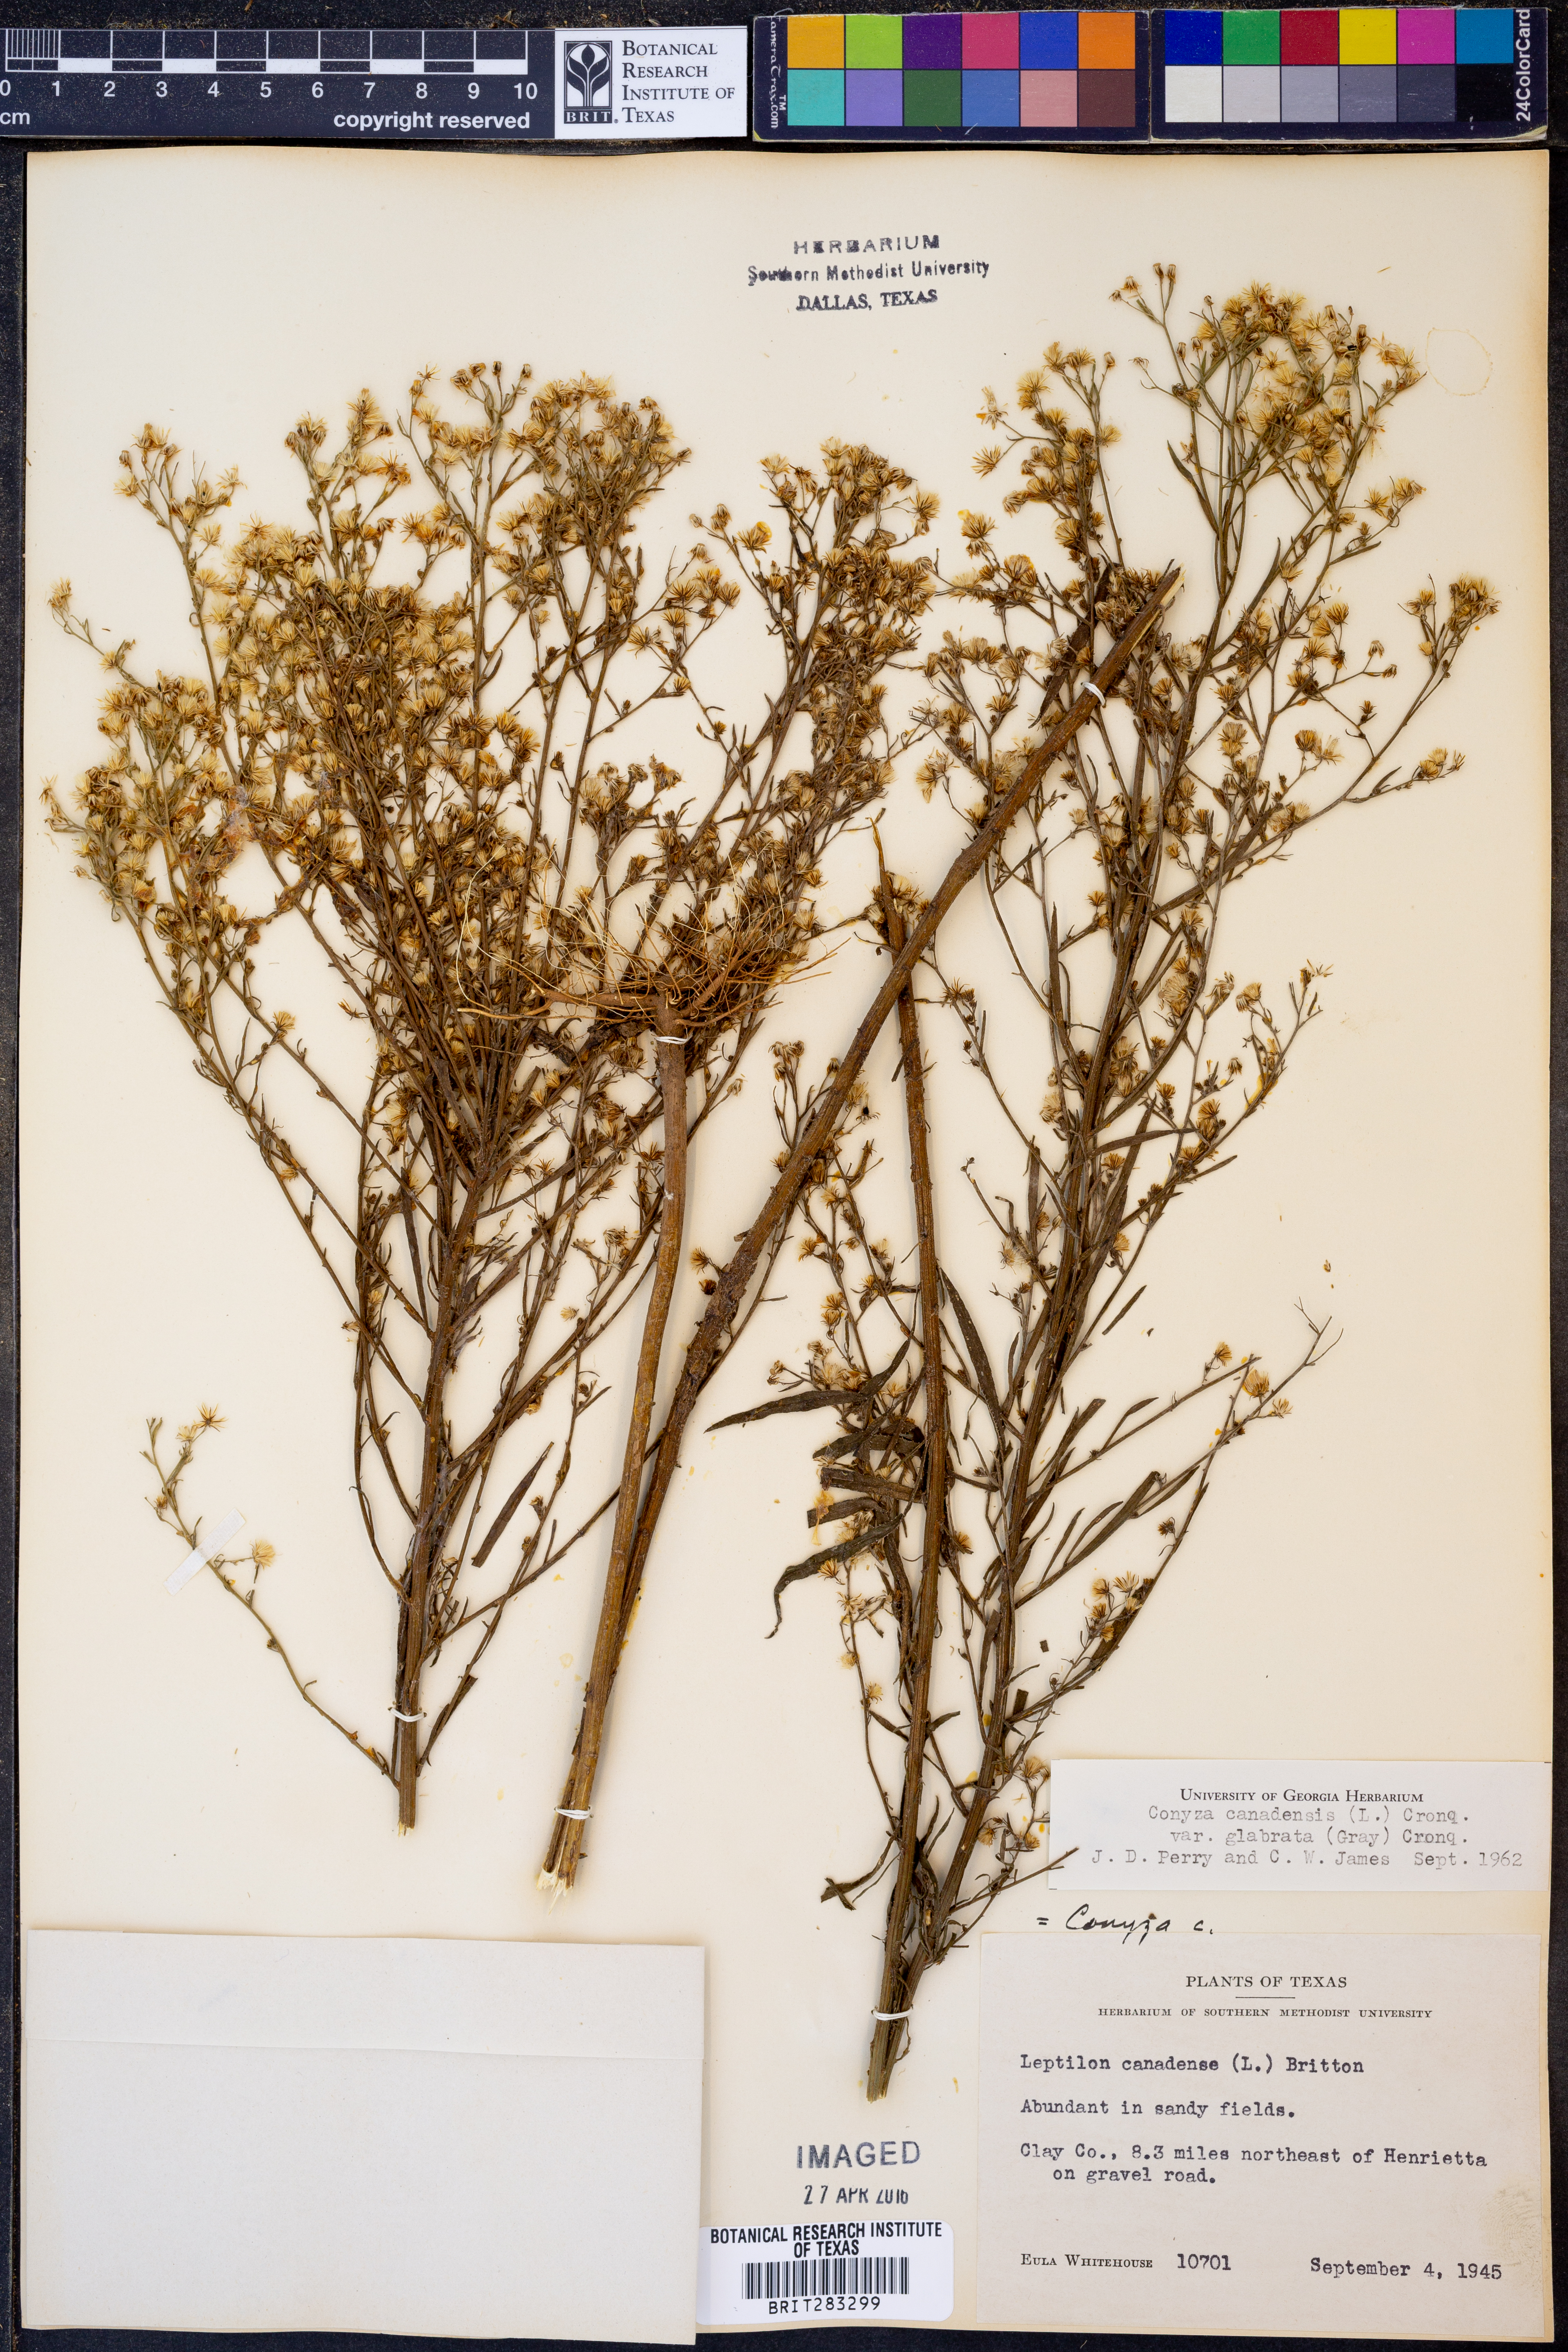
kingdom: Plantae
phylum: Tracheophyta
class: Magnoliopsida
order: Asterales
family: Asteraceae
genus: Erigeron
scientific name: Erigeron canadensis
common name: Canadian fleabane
